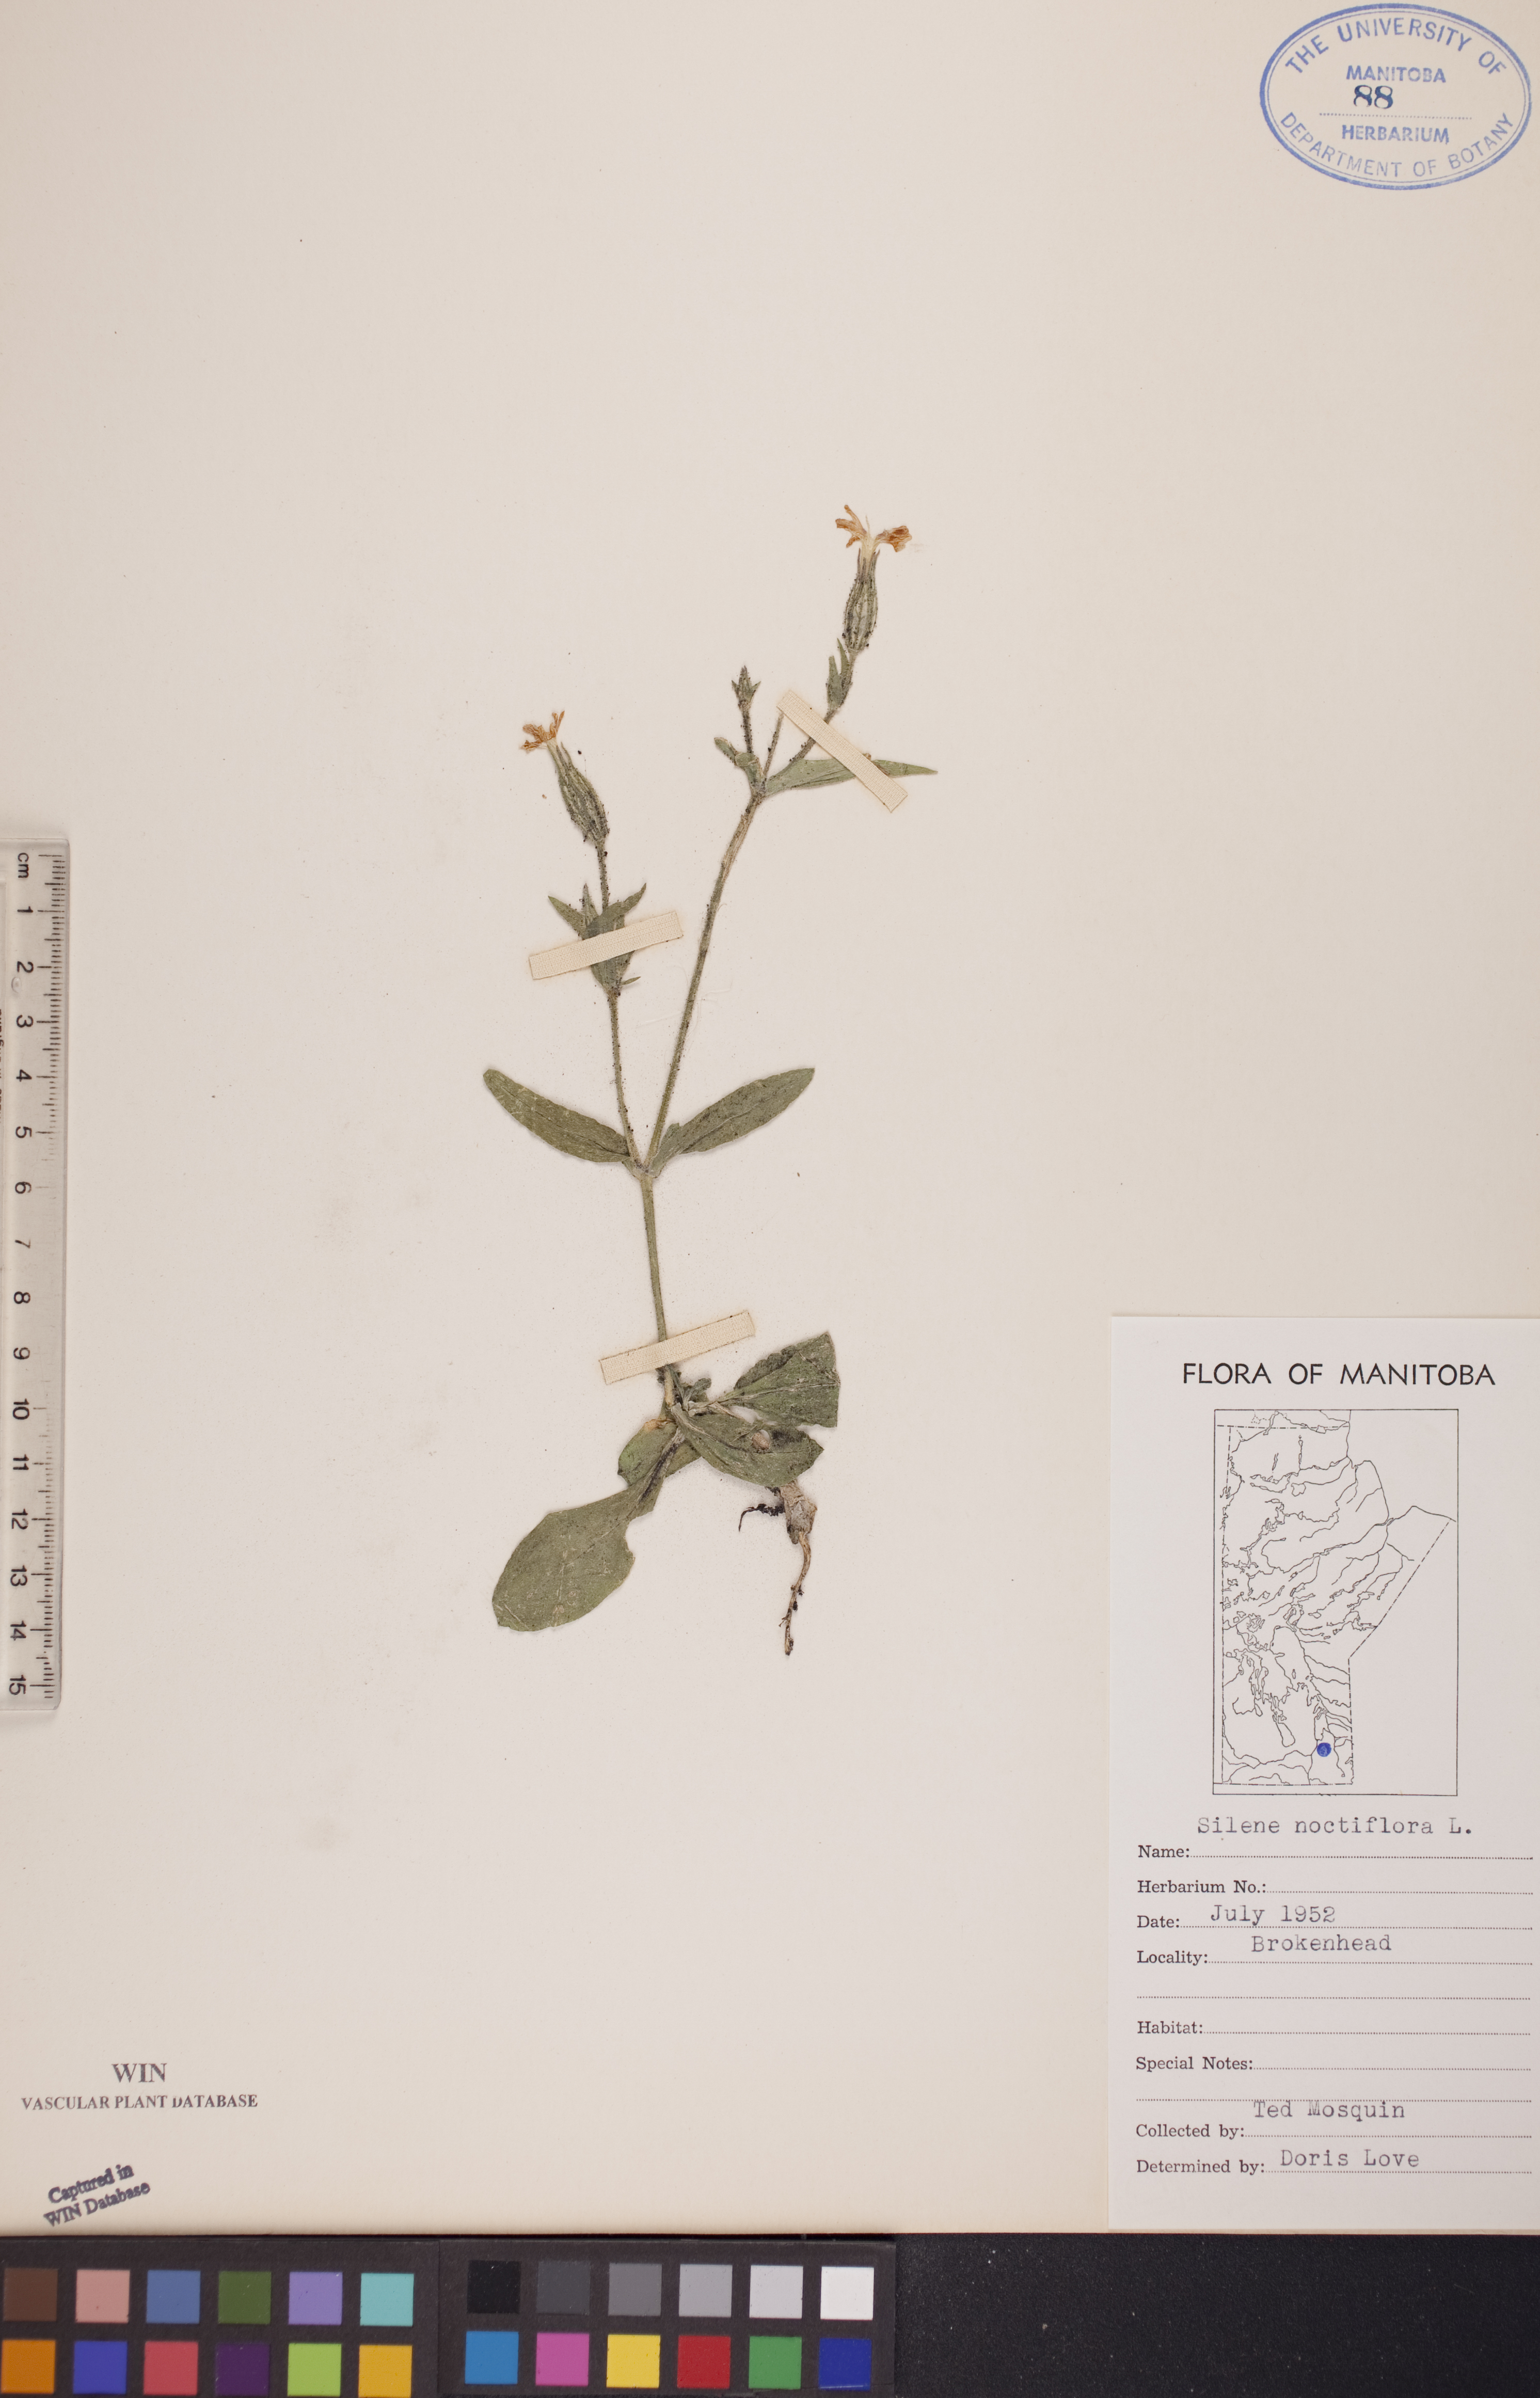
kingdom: Plantae
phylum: Tracheophyta
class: Magnoliopsida
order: Caryophyllales
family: Caryophyllaceae
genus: Silene
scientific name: Silene noctiflora
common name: Night-flowering catchfly
